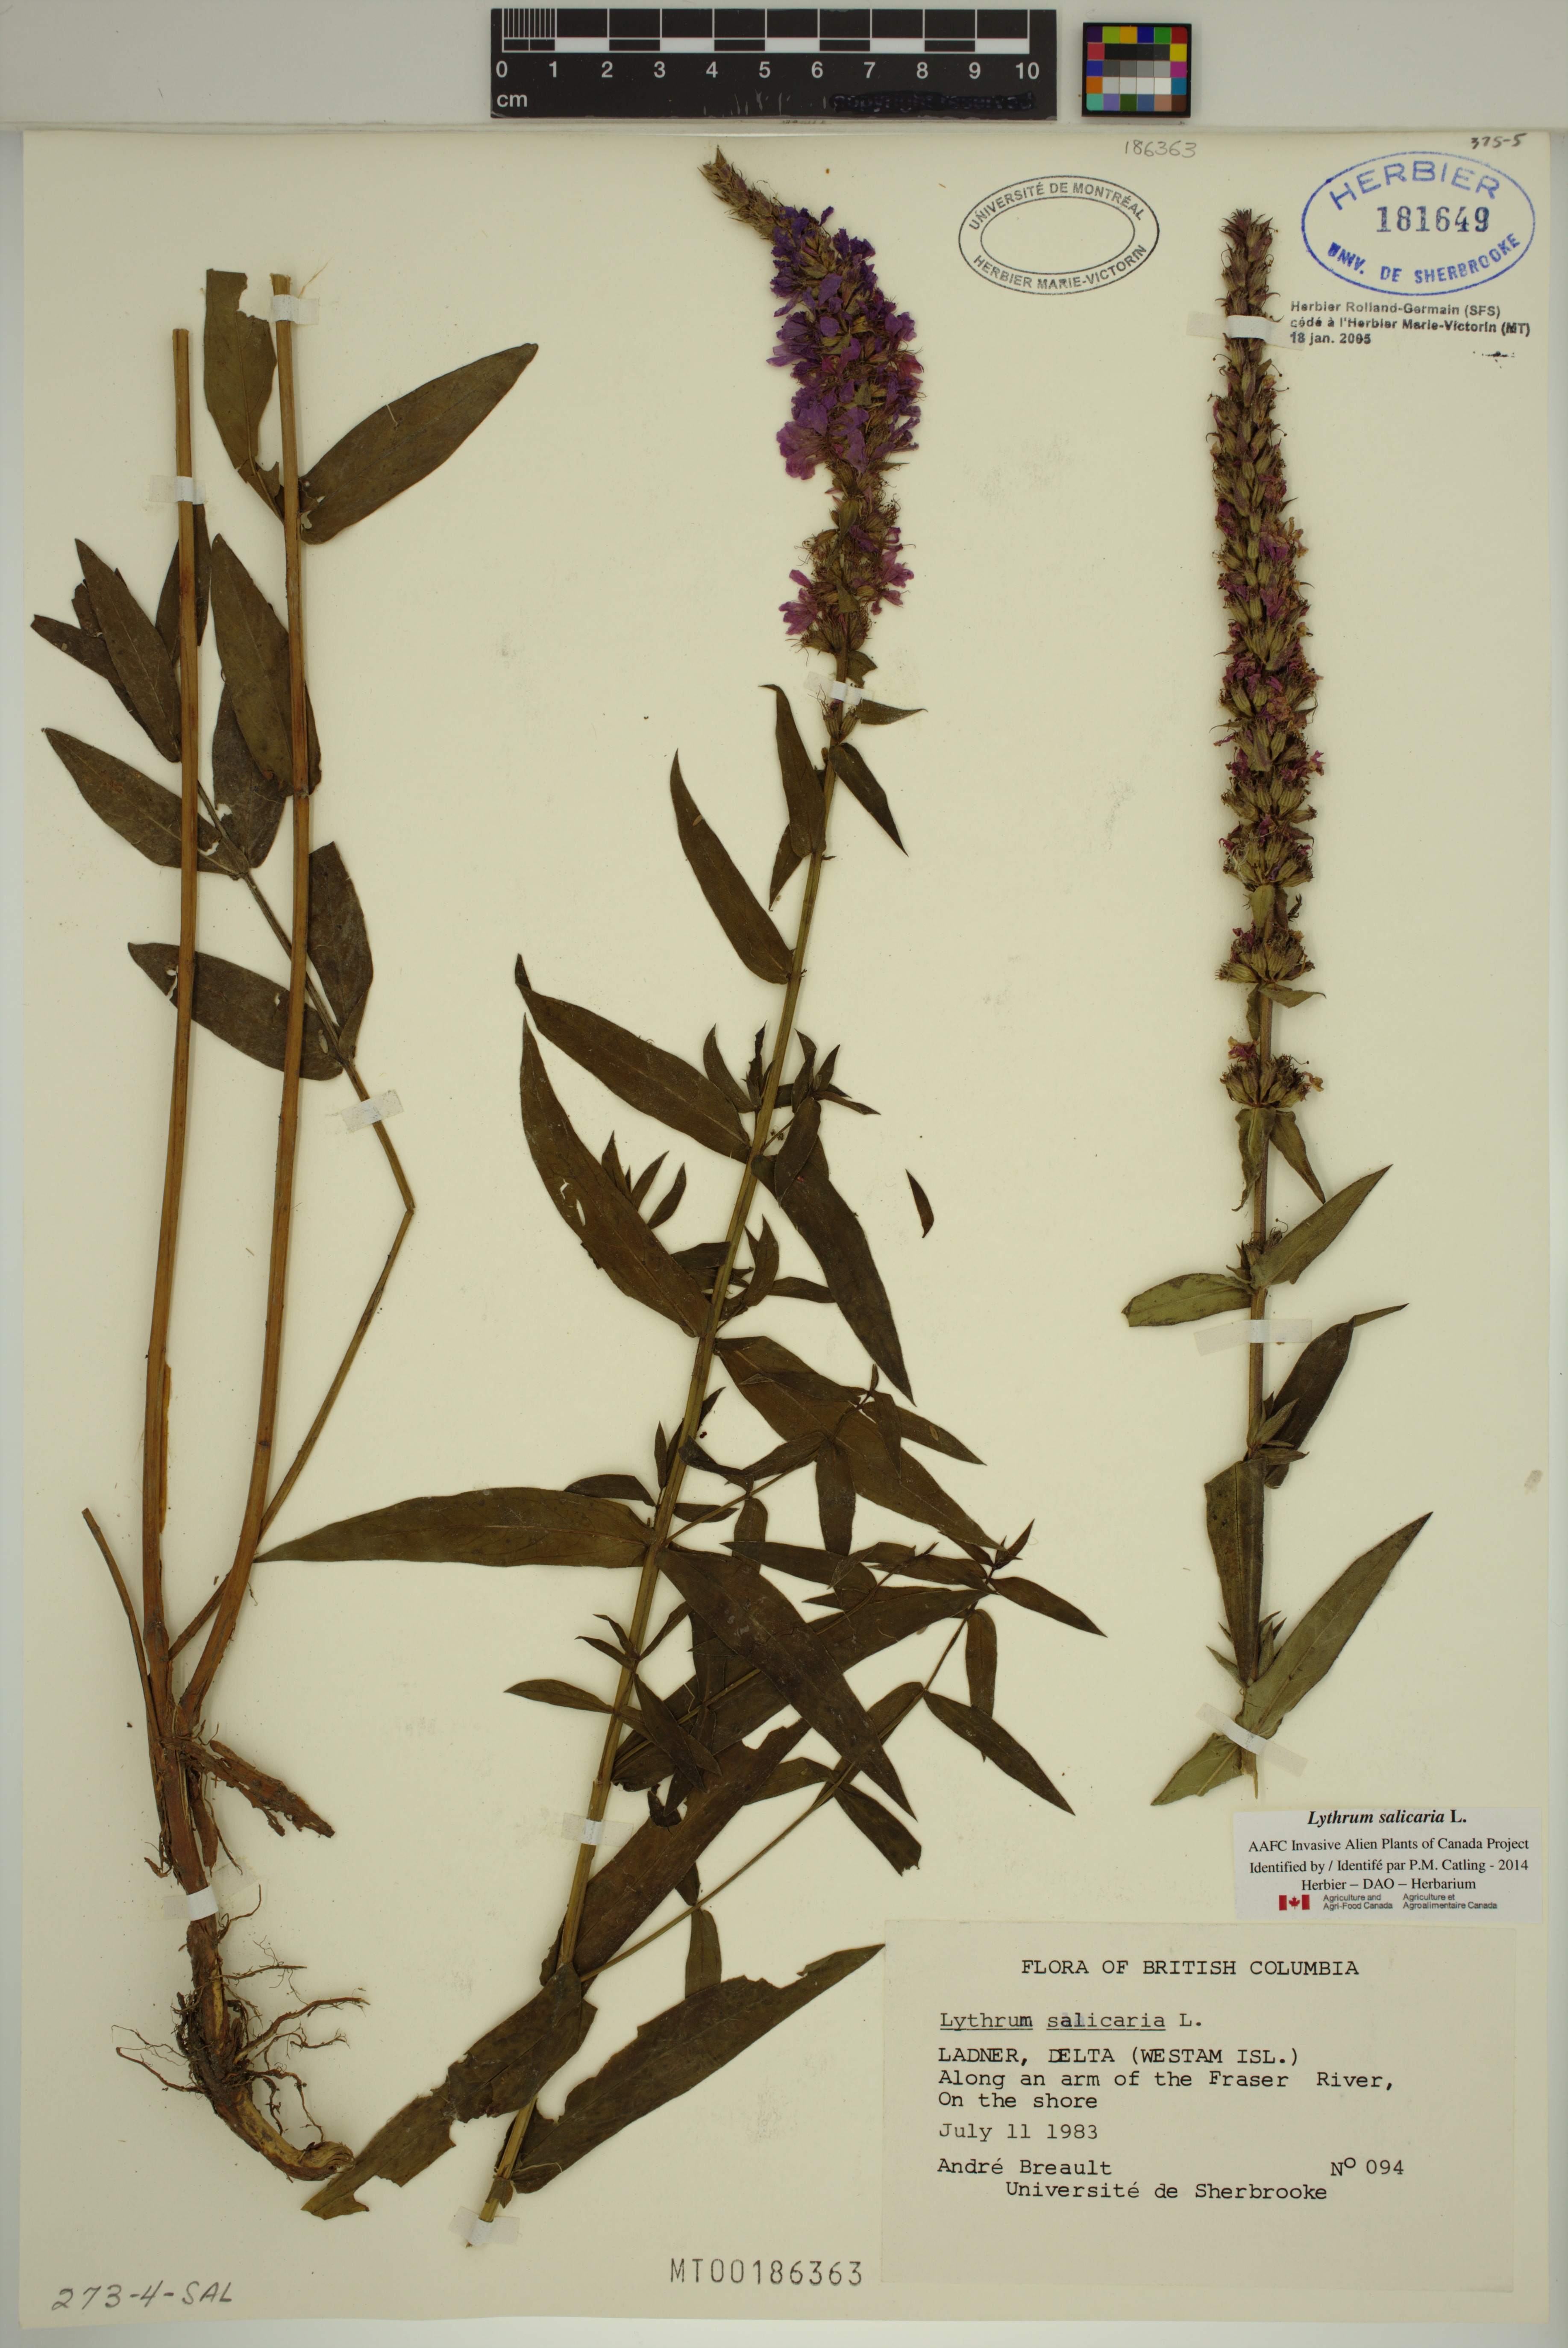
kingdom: Plantae
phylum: Tracheophyta
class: Magnoliopsida
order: Myrtales
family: Lythraceae
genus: Lythrum
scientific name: Lythrum salicaria
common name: Purple loosestrife
